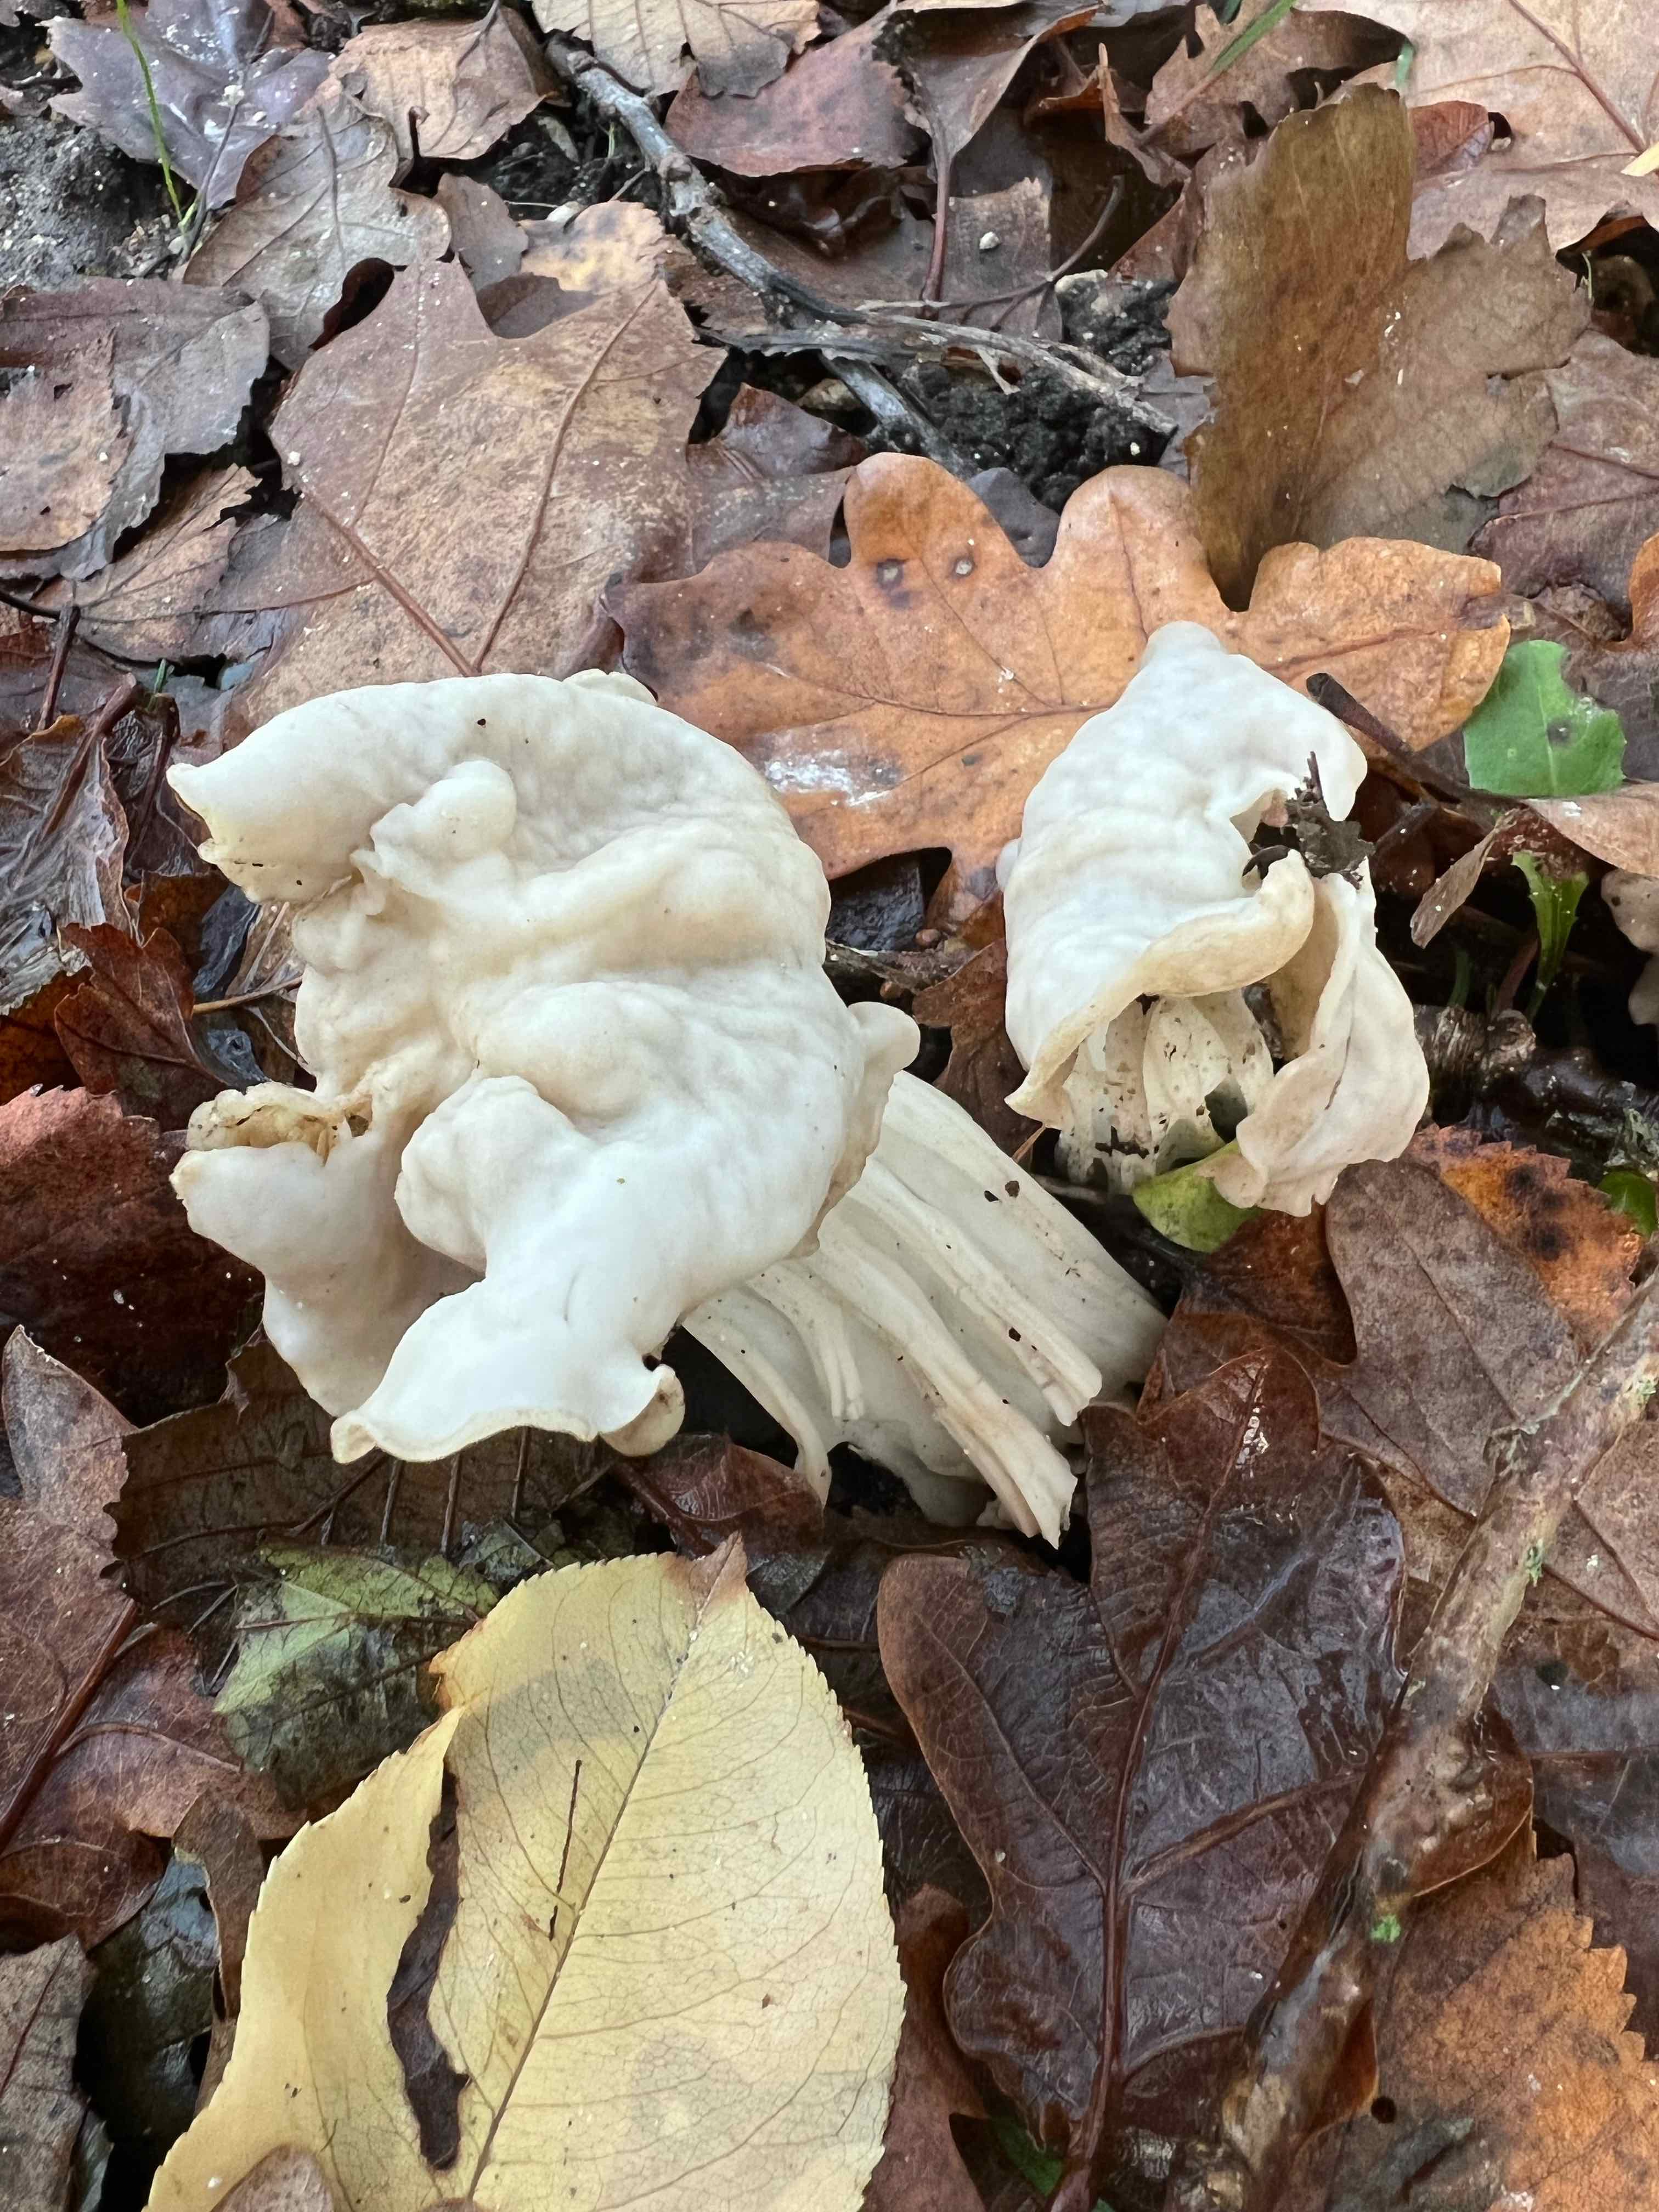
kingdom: Fungi
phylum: Ascomycota
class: Pezizomycetes
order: Pezizales
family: Helvellaceae
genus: Helvella
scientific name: Helvella crispa
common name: kruset foldhat
